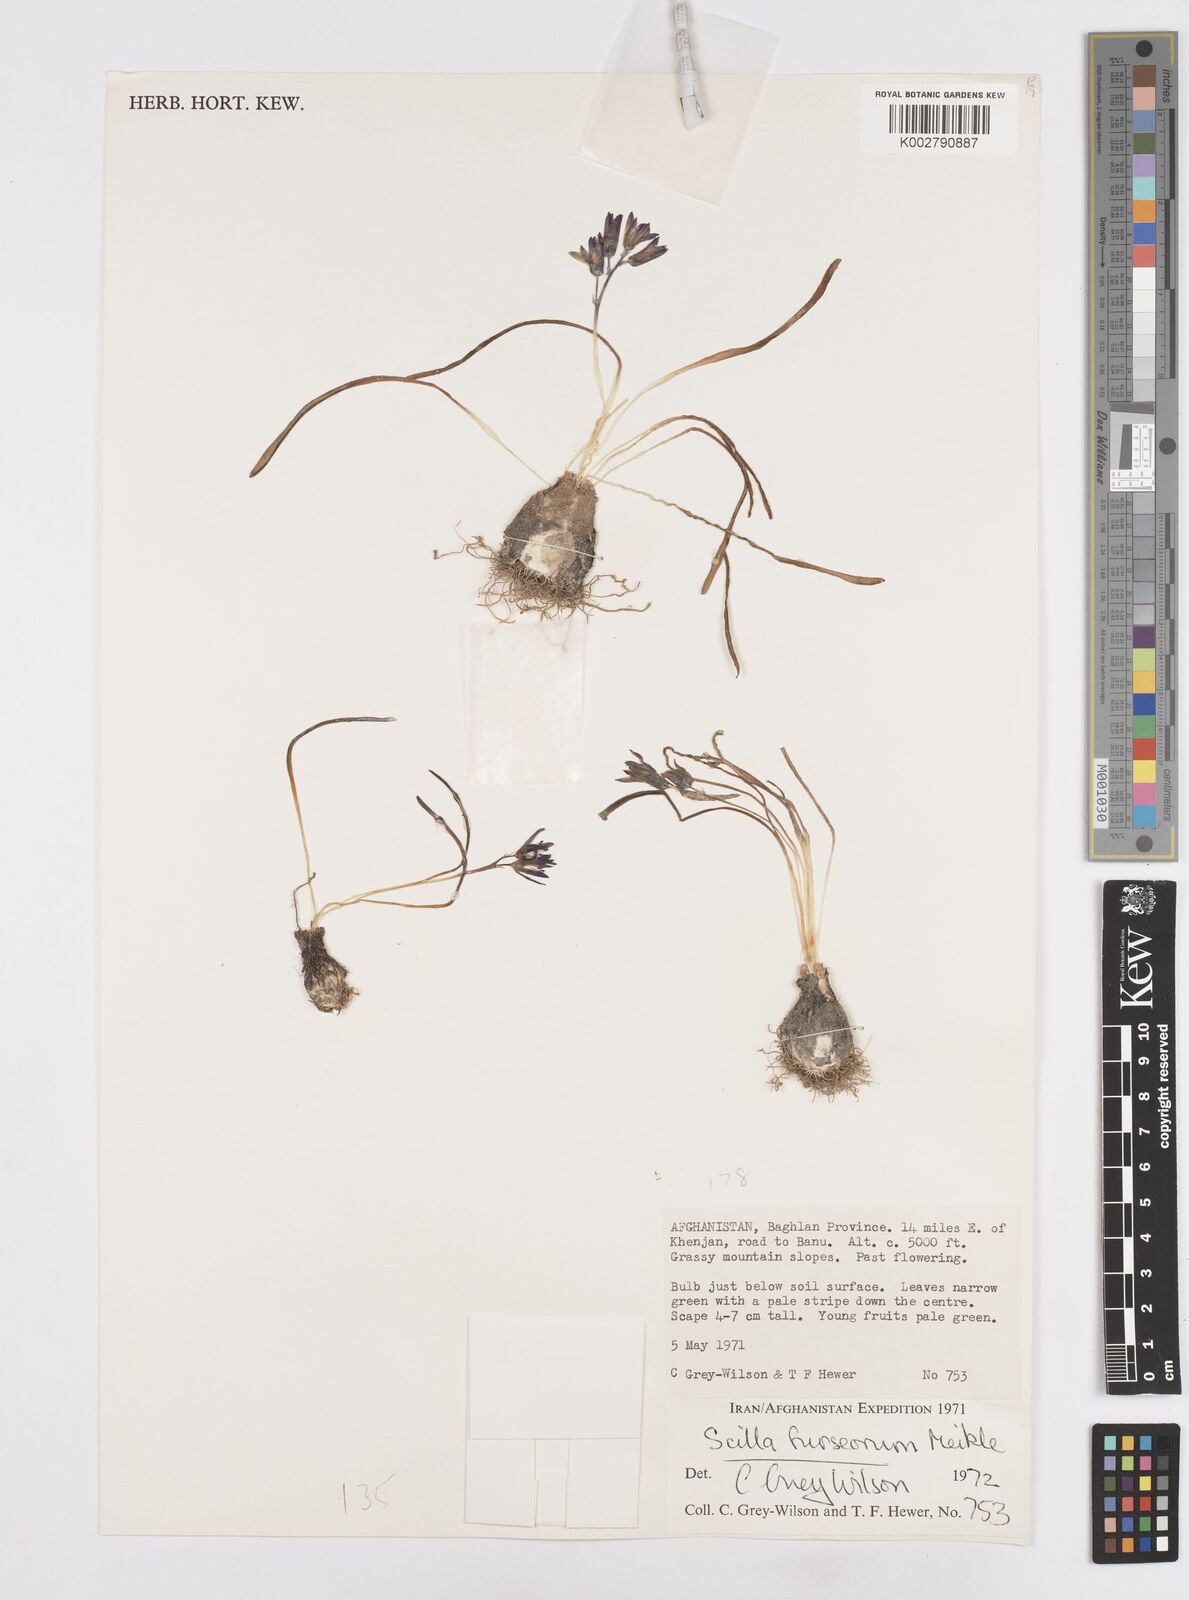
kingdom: Plantae
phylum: Tracheophyta
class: Liliopsida
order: Asparagales
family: Asparagaceae
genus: Fessia
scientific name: Fessia furseorum
